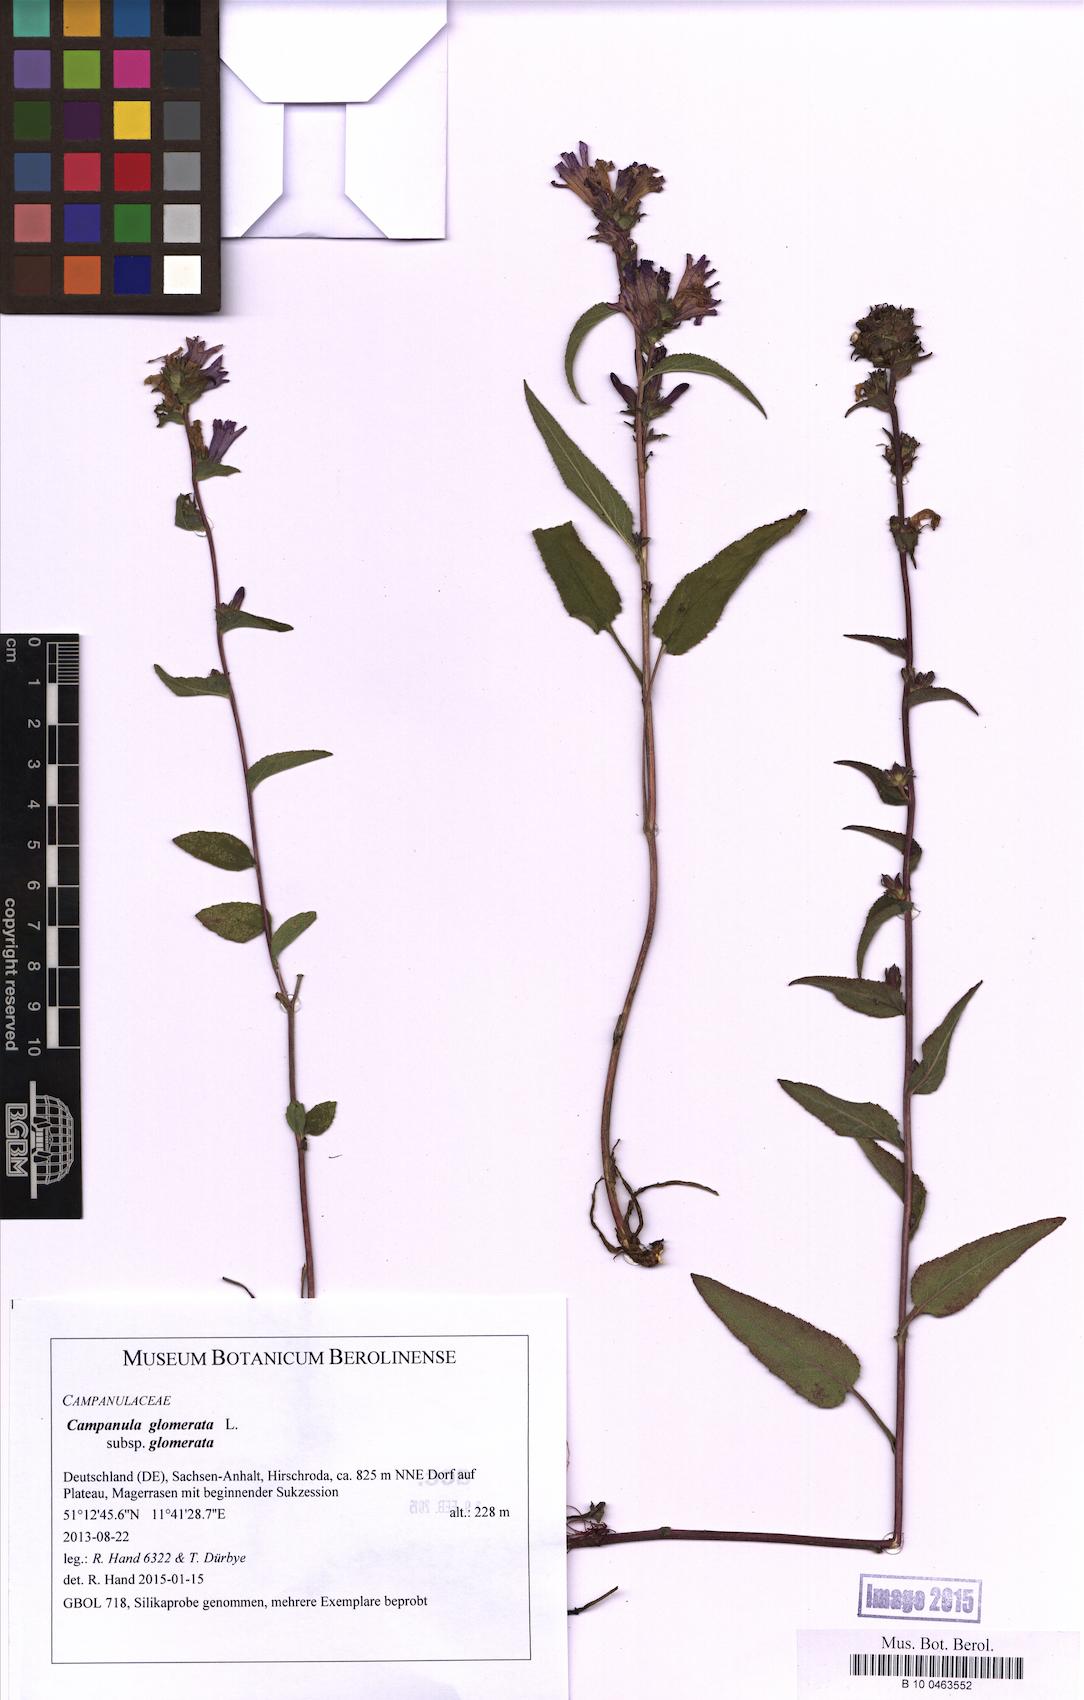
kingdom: Plantae
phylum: Tracheophyta
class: Magnoliopsida
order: Asterales
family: Campanulaceae
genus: Campanula
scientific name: Campanula glomerata
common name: Clustered bellflower
